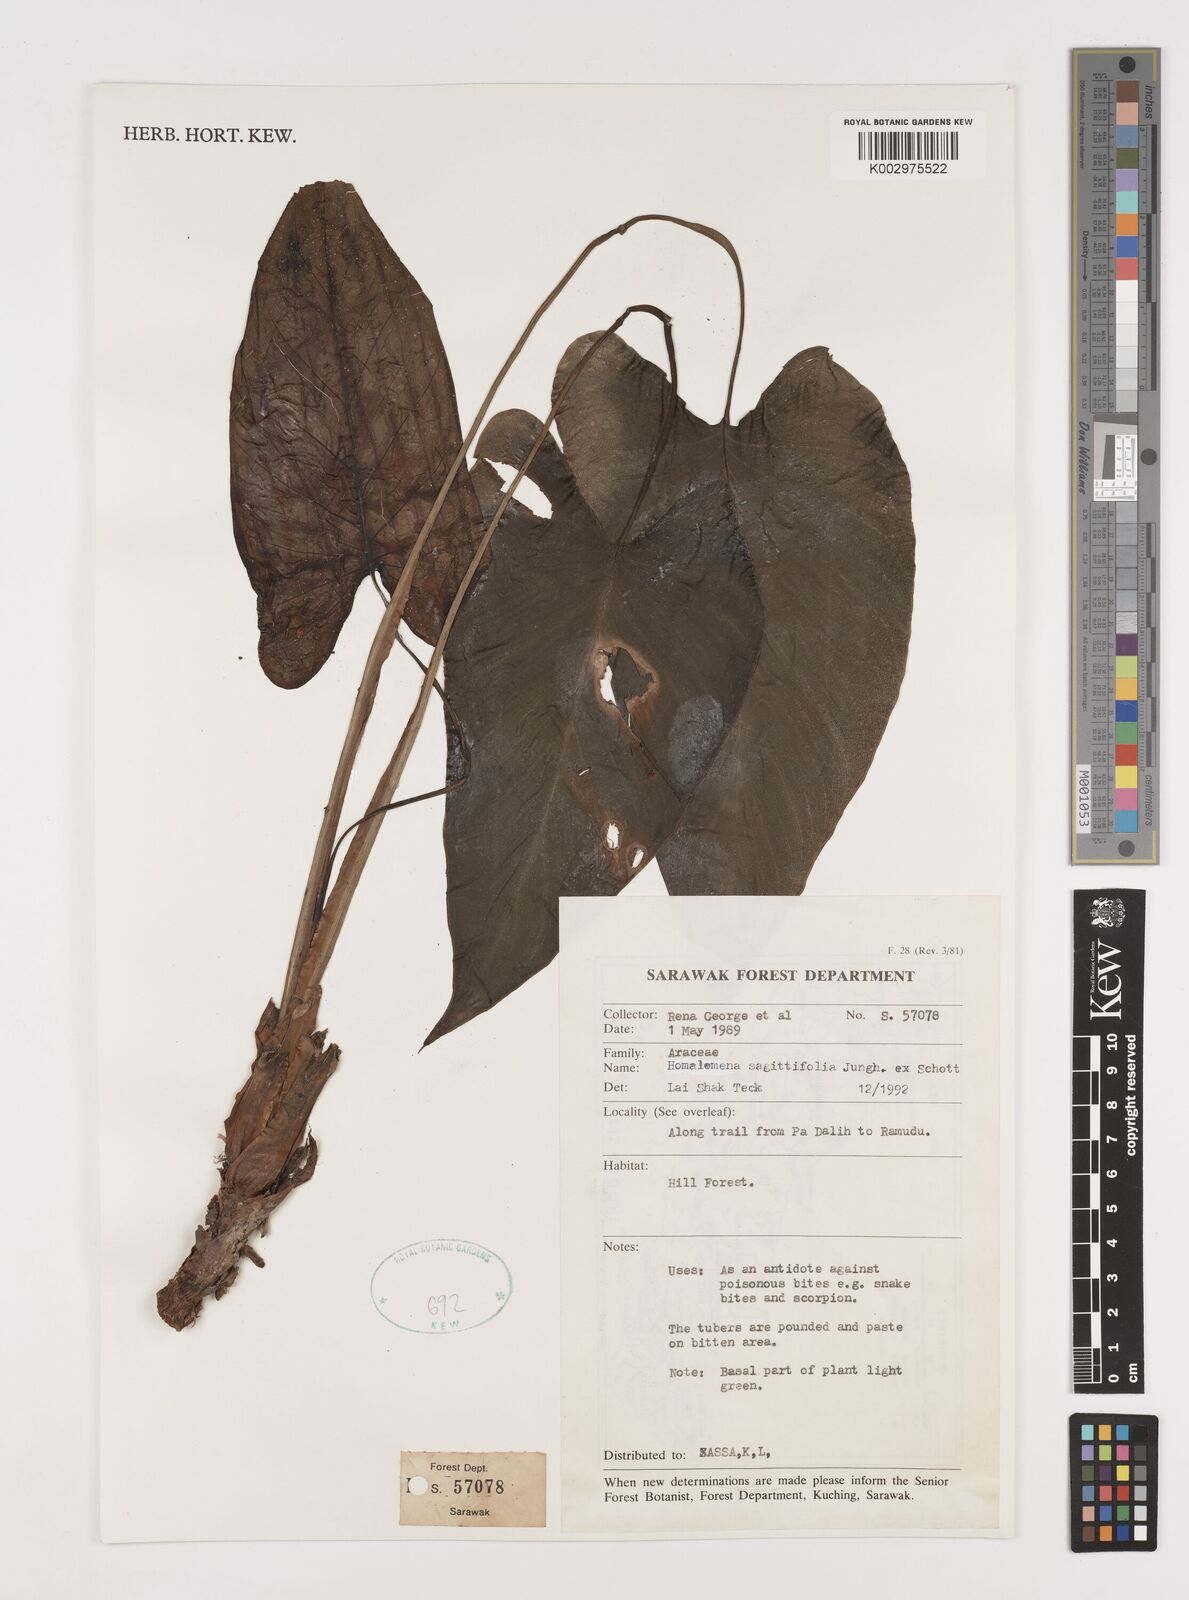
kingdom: Plantae
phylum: Tracheophyta
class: Liliopsida
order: Alismatales
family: Araceae
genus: Homalomena
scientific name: Homalomena rostrata
